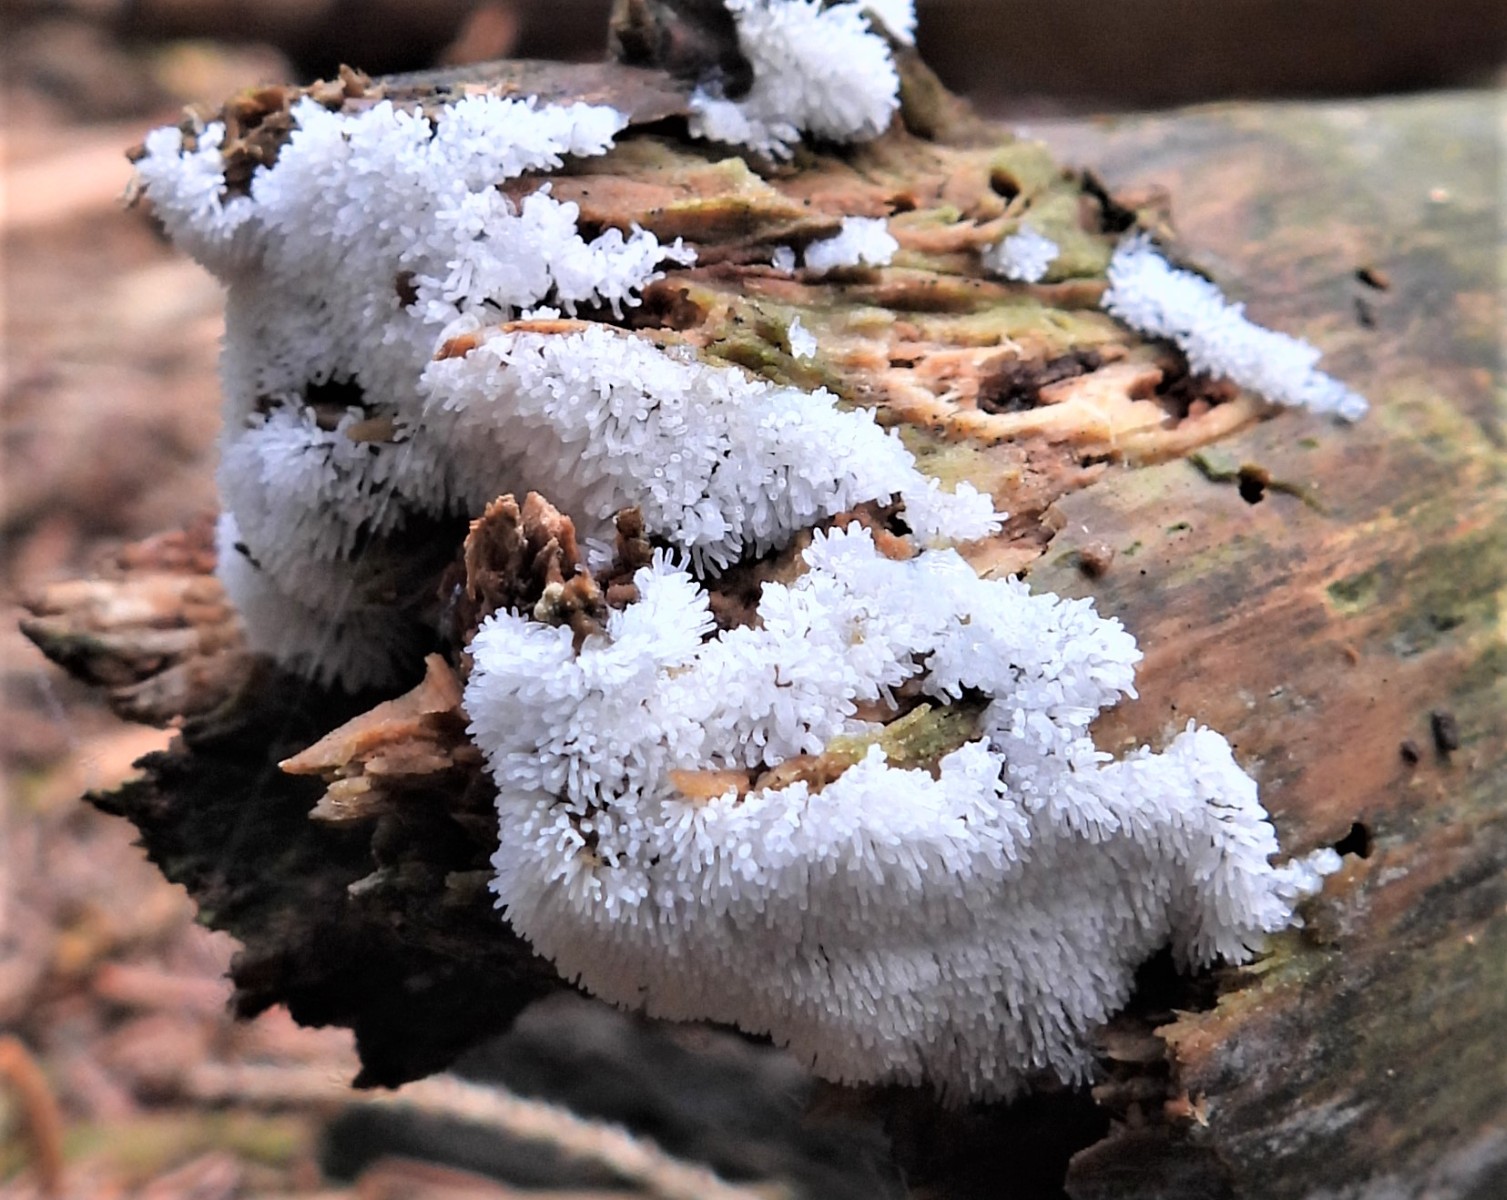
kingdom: Protozoa
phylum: Mycetozoa
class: Protosteliomycetes
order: Ceratiomyxales
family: Ceratiomyxaceae
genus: Ceratiomyxa
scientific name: Ceratiomyxa fruticulosa
